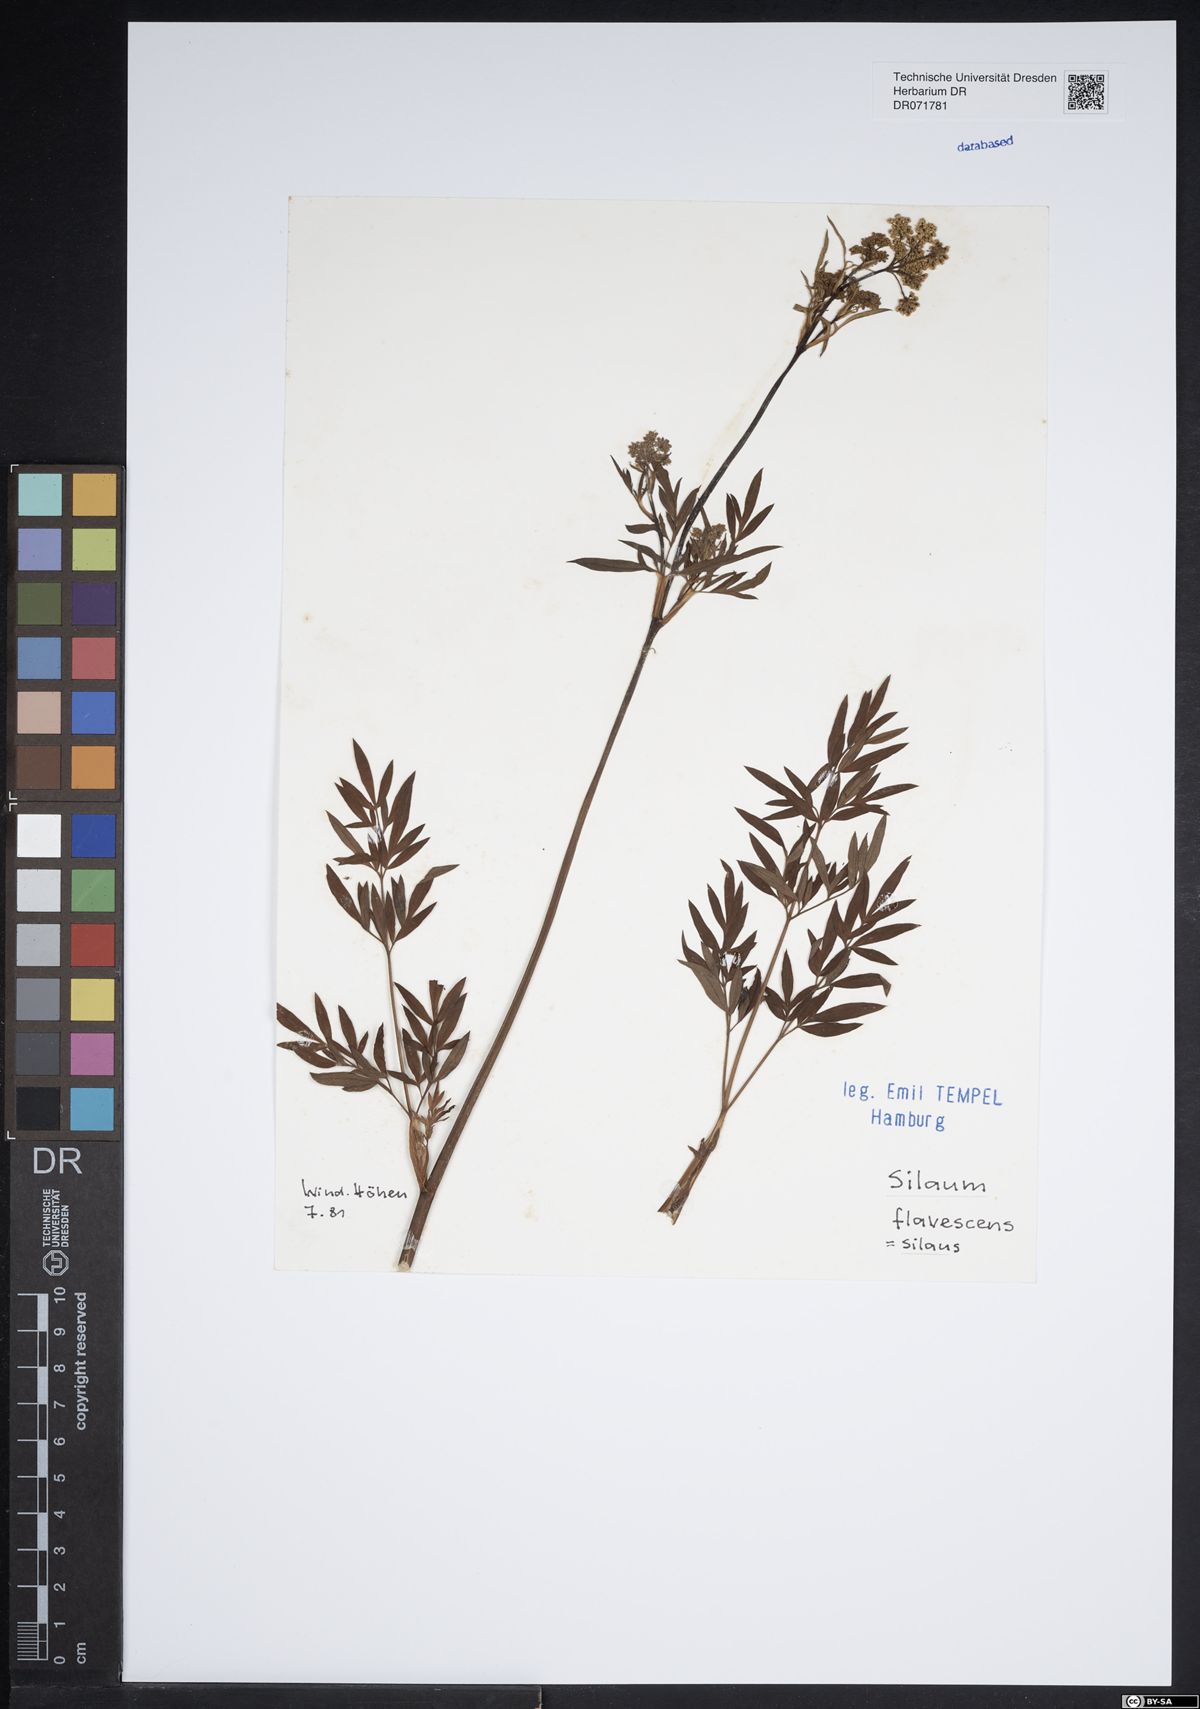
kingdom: Plantae
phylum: Tracheophyta
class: Magnoliopsida
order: Apiales
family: Apiaceae
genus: Silaum
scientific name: Silaum silaus
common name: Pepper-saxifrage
